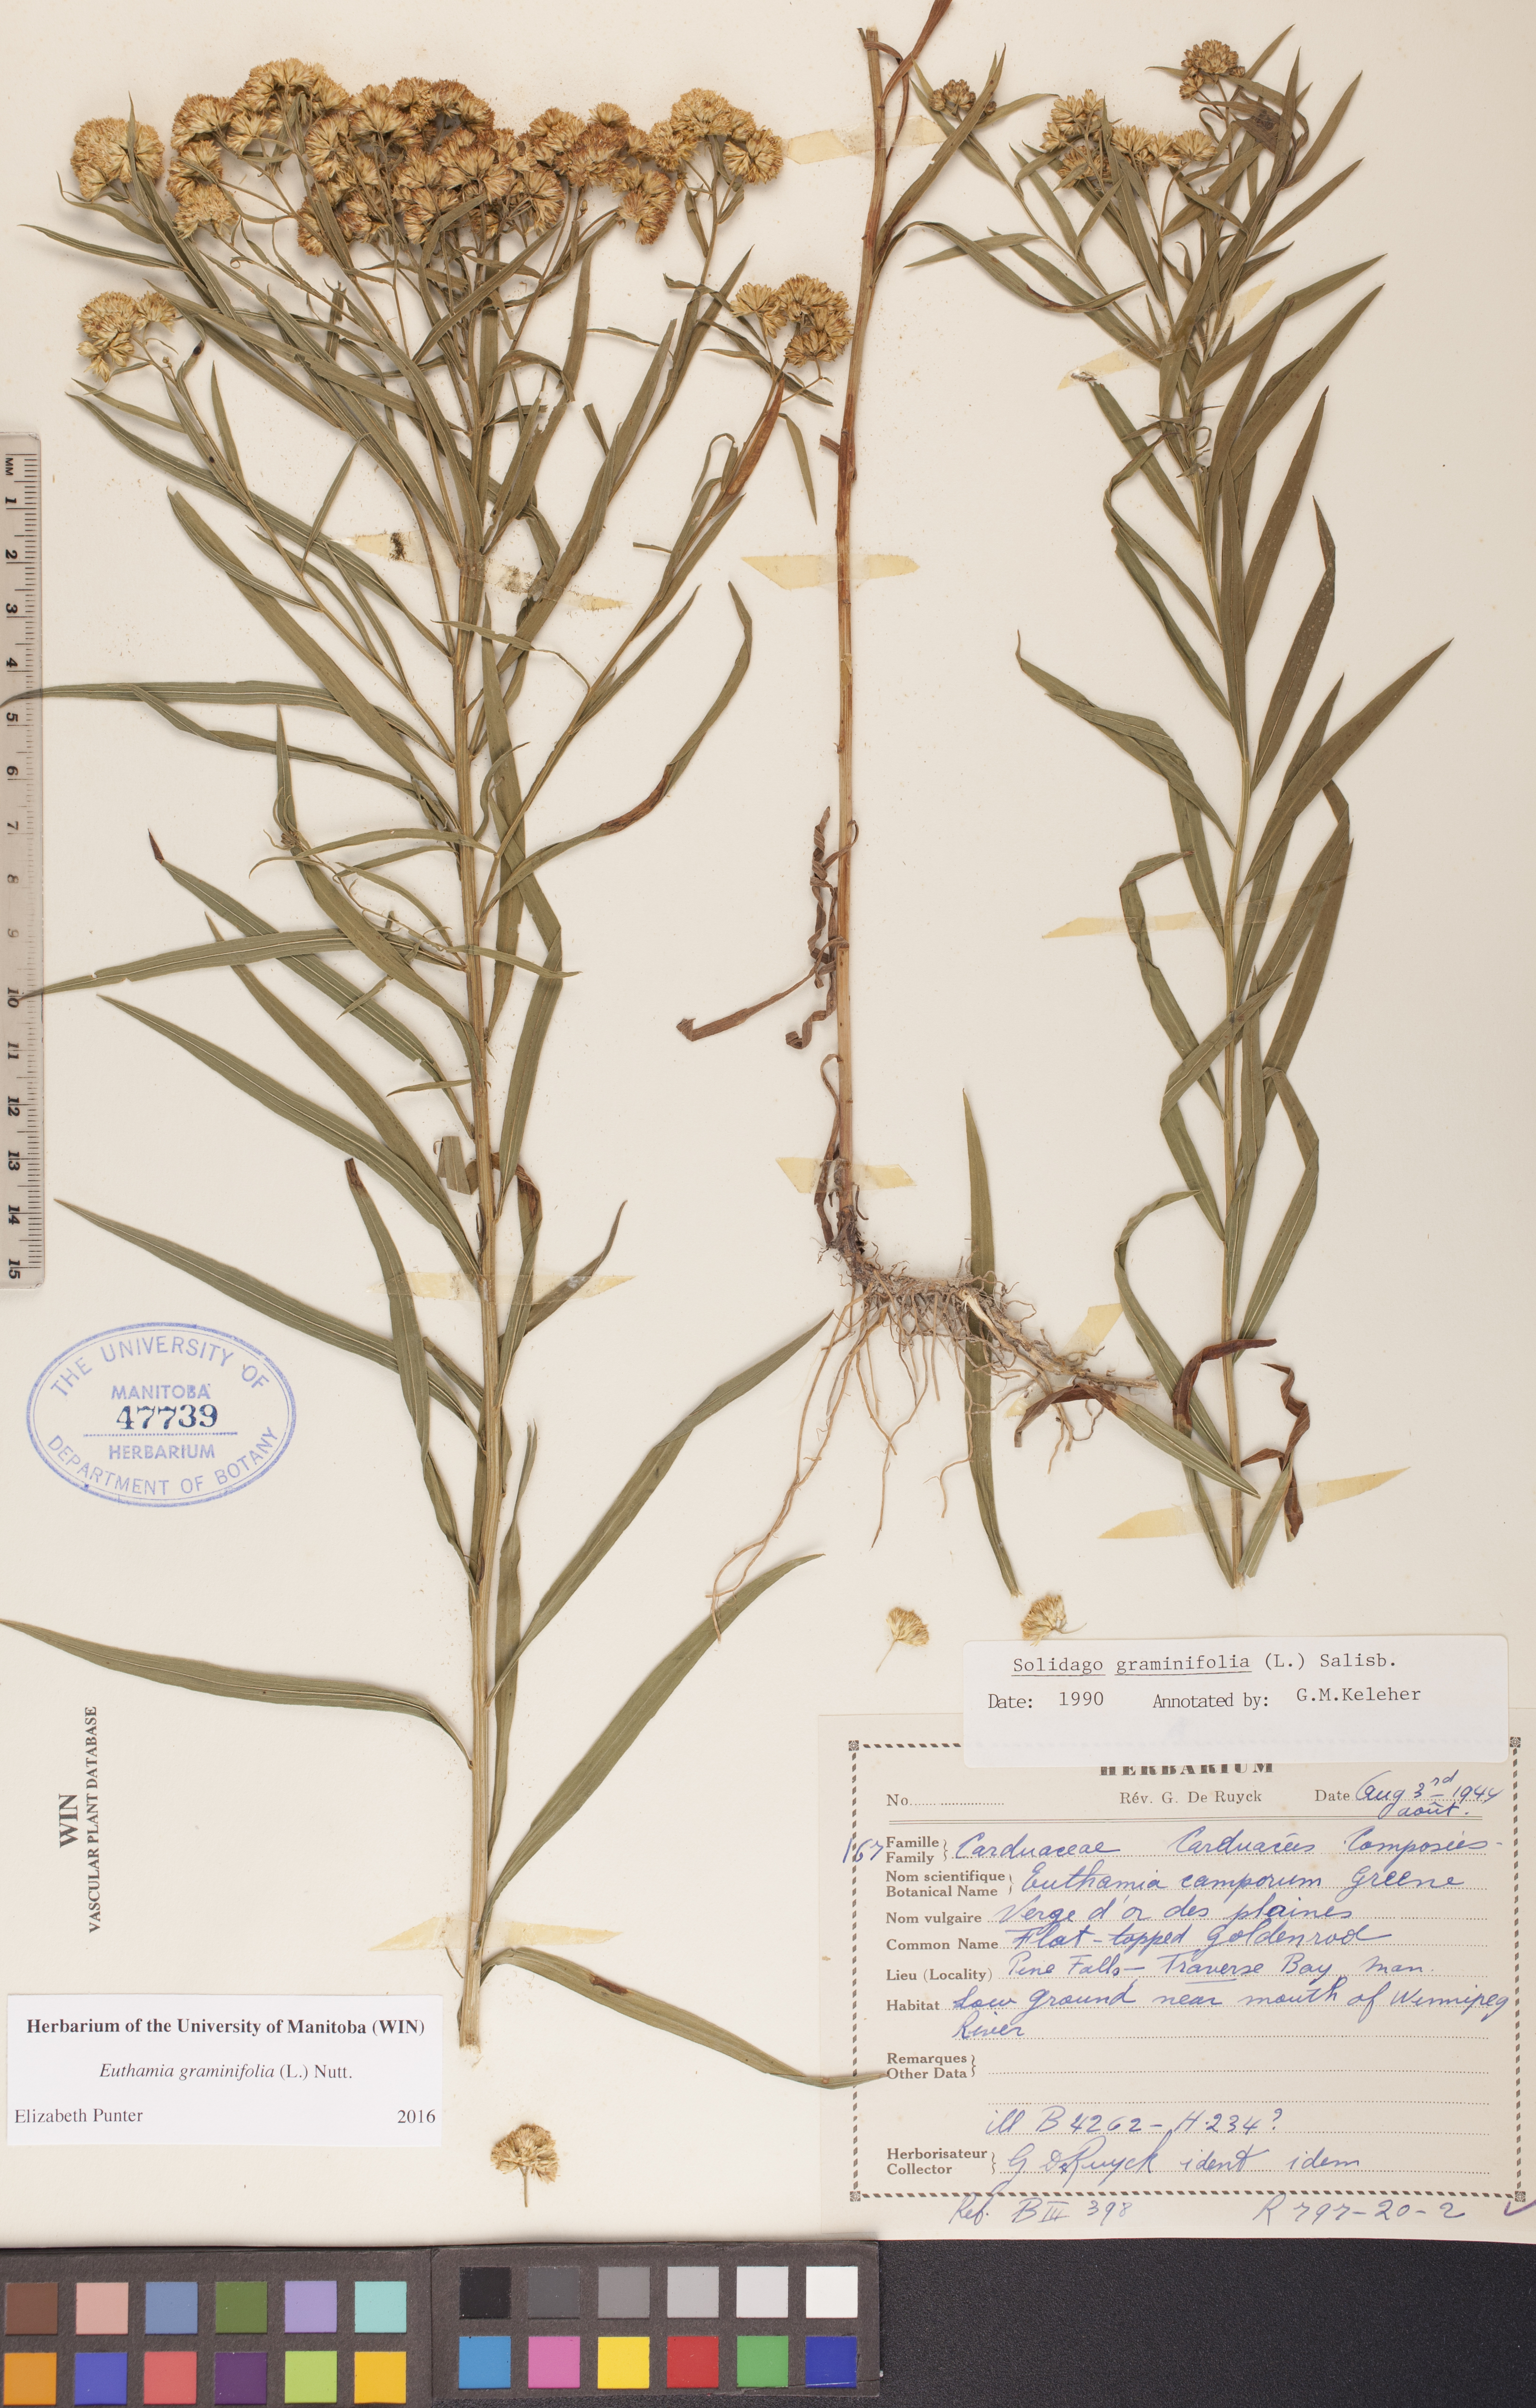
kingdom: Plantae
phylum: Tracheophyta
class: Magnoliopsida
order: Asterales
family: Asteraceae
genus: Euthamia
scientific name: Euthamia graminifolia
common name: Common goldentop
